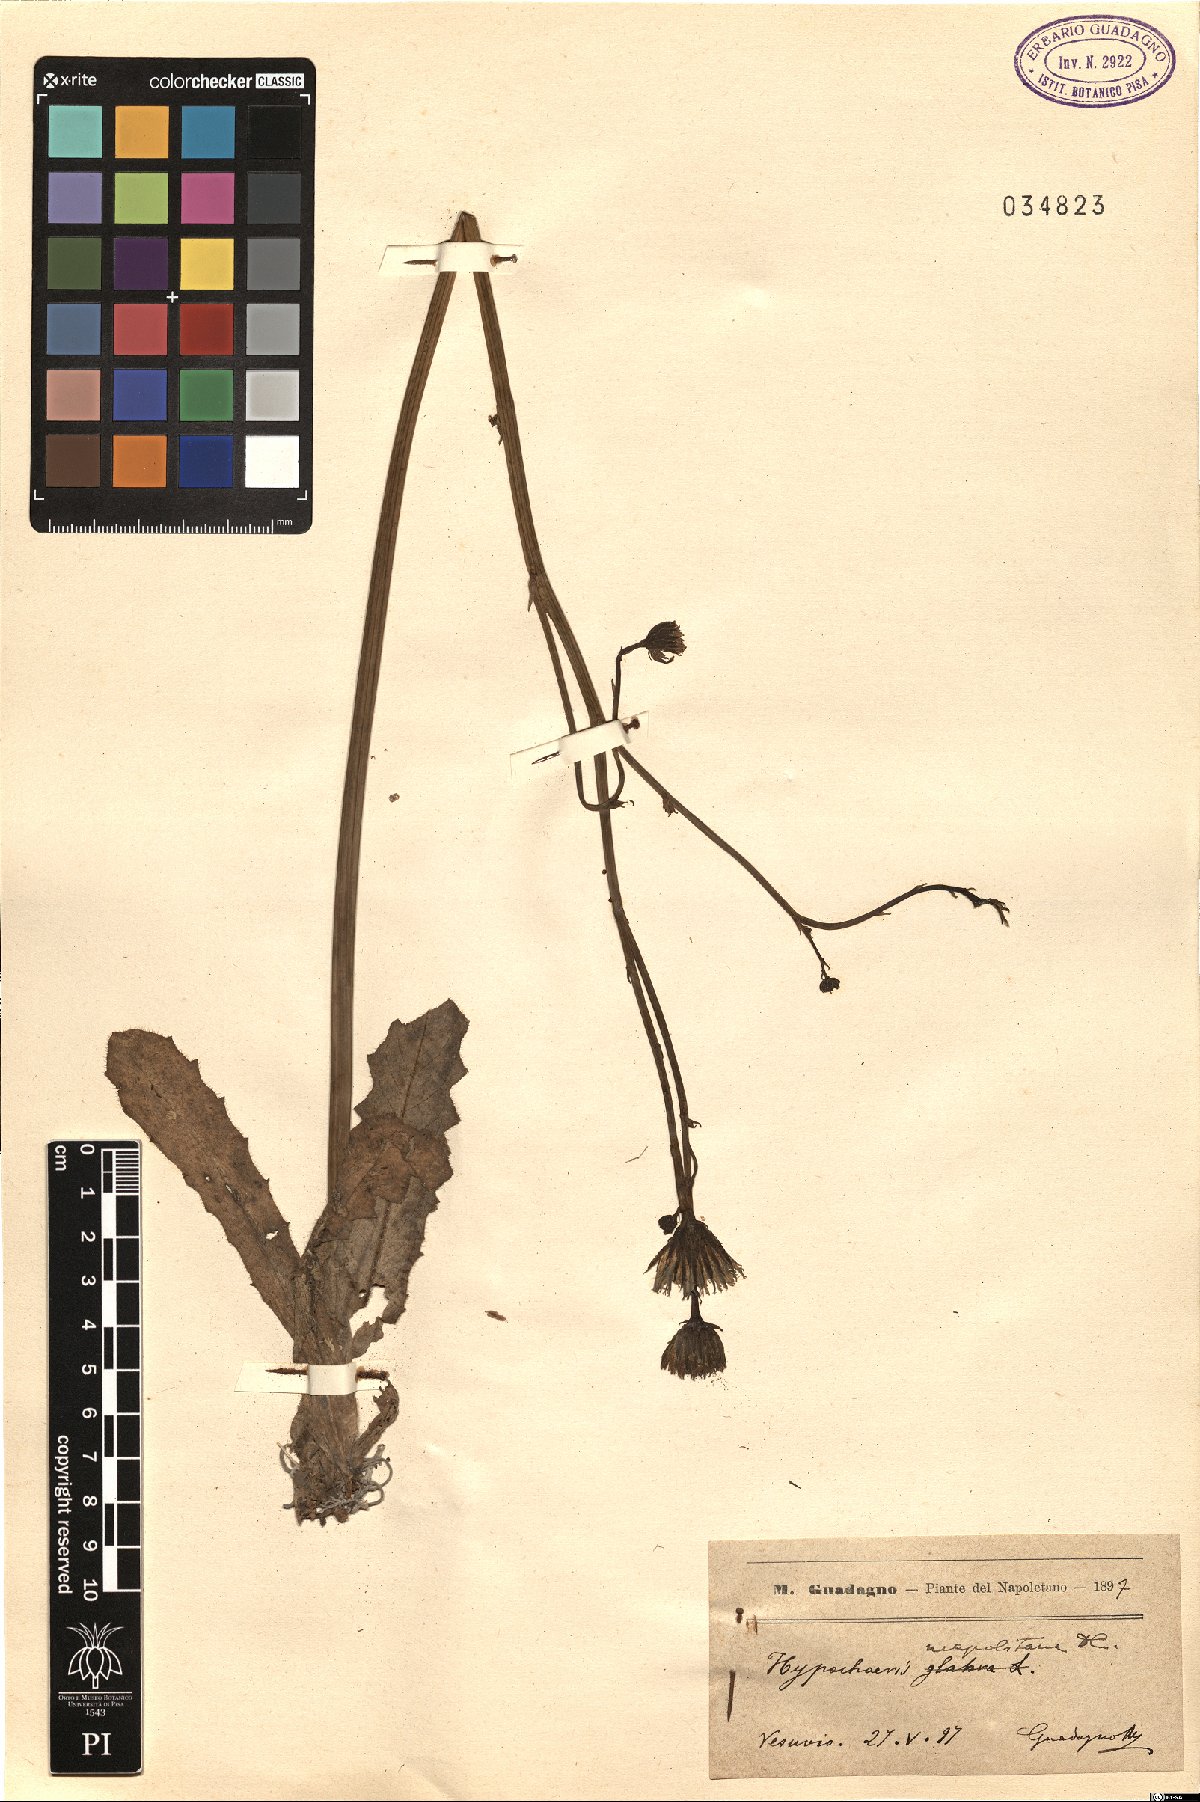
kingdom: Plantae
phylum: Tracheophyta
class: Magnoliopsida
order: Asterales
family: Asteraceae
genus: Hypochaeris
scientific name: Hypochaeris radicata
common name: Flatweed
